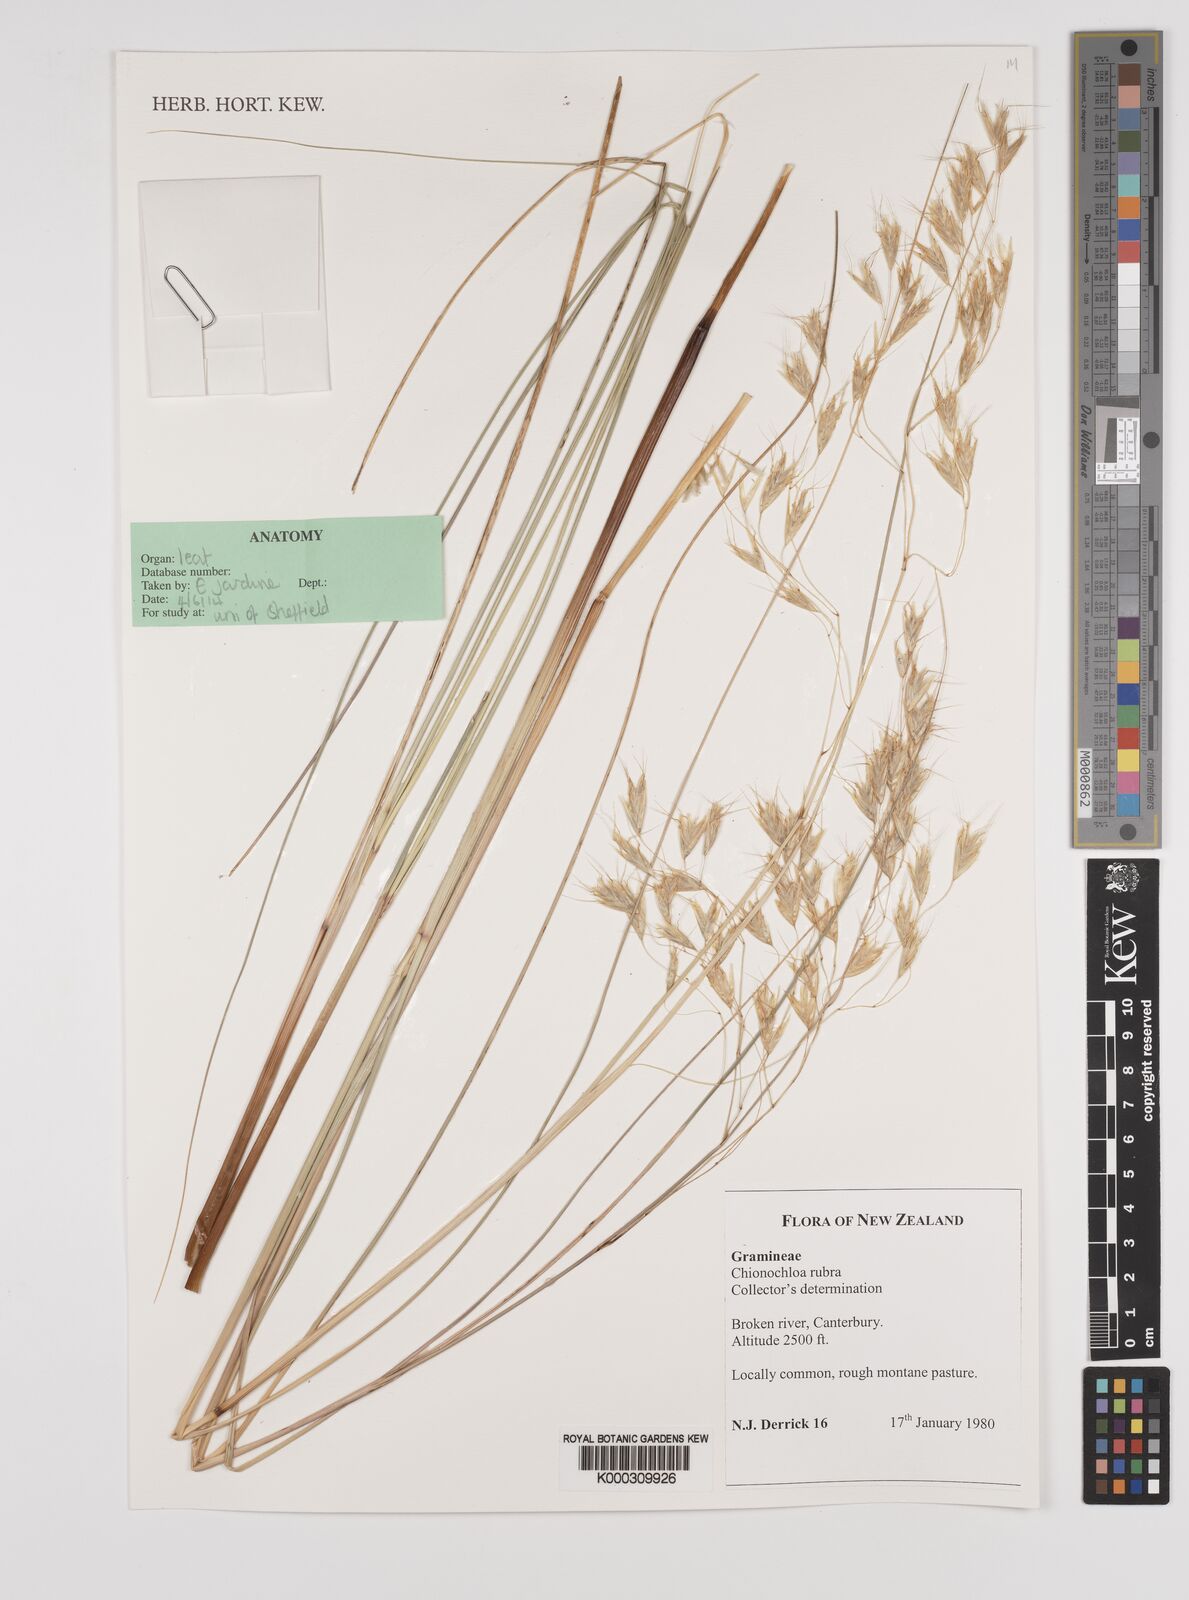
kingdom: Plantae
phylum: Tracheophyta
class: Liliopsida
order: Poales
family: Poaceae
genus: Chionochloa
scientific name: Chionochloa rubra
